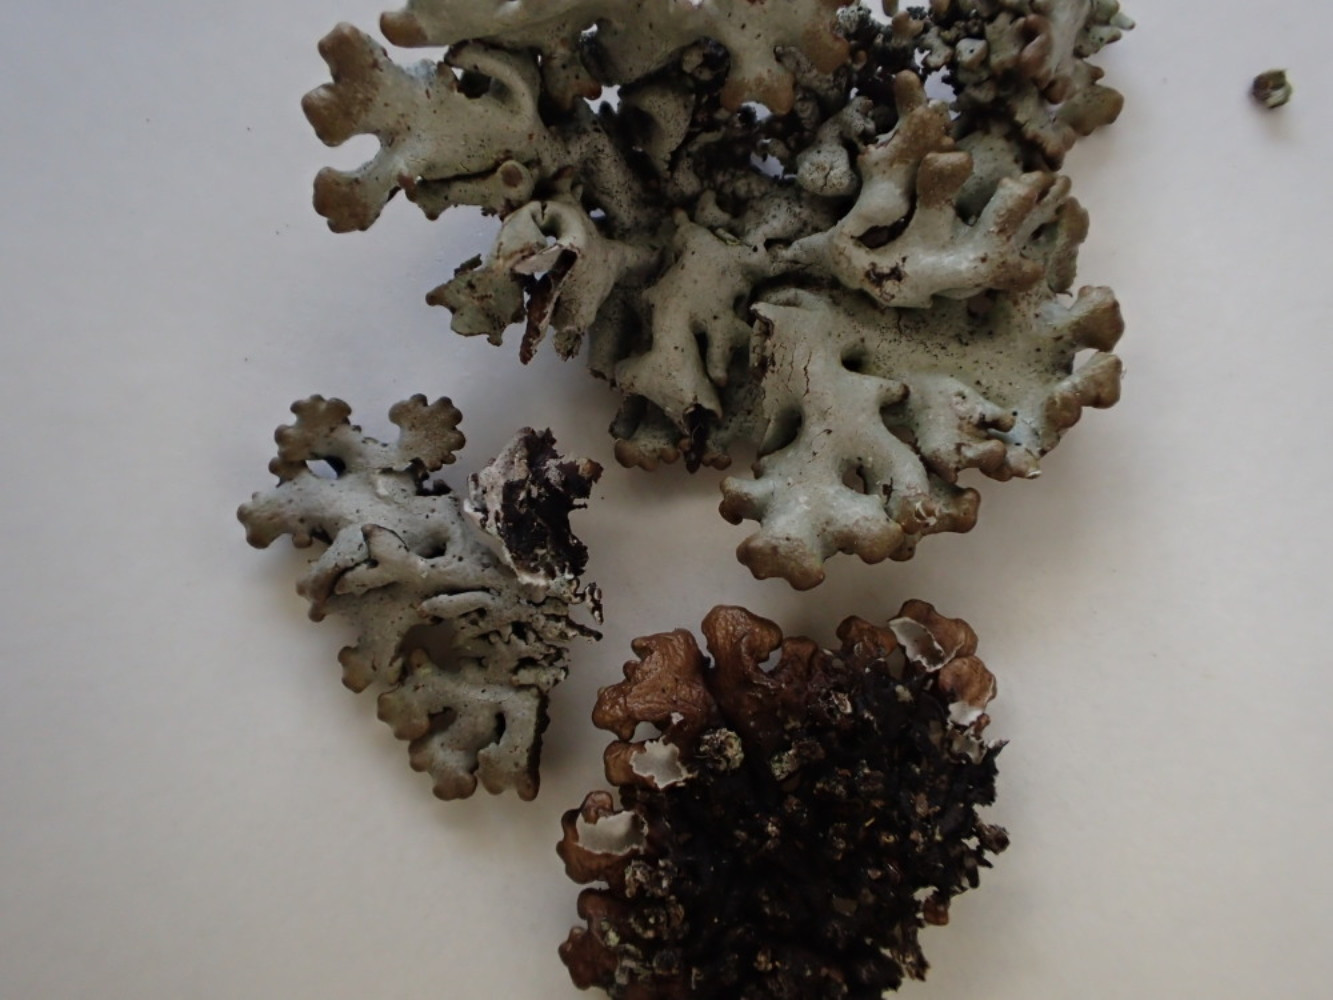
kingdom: Fungi
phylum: Ascomycota
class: Lecanoromycetes
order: Lecanorales
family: Parmeliaceae
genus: Hypogymnia
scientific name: Hypogymnia physodes
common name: almindelig kvistlav
